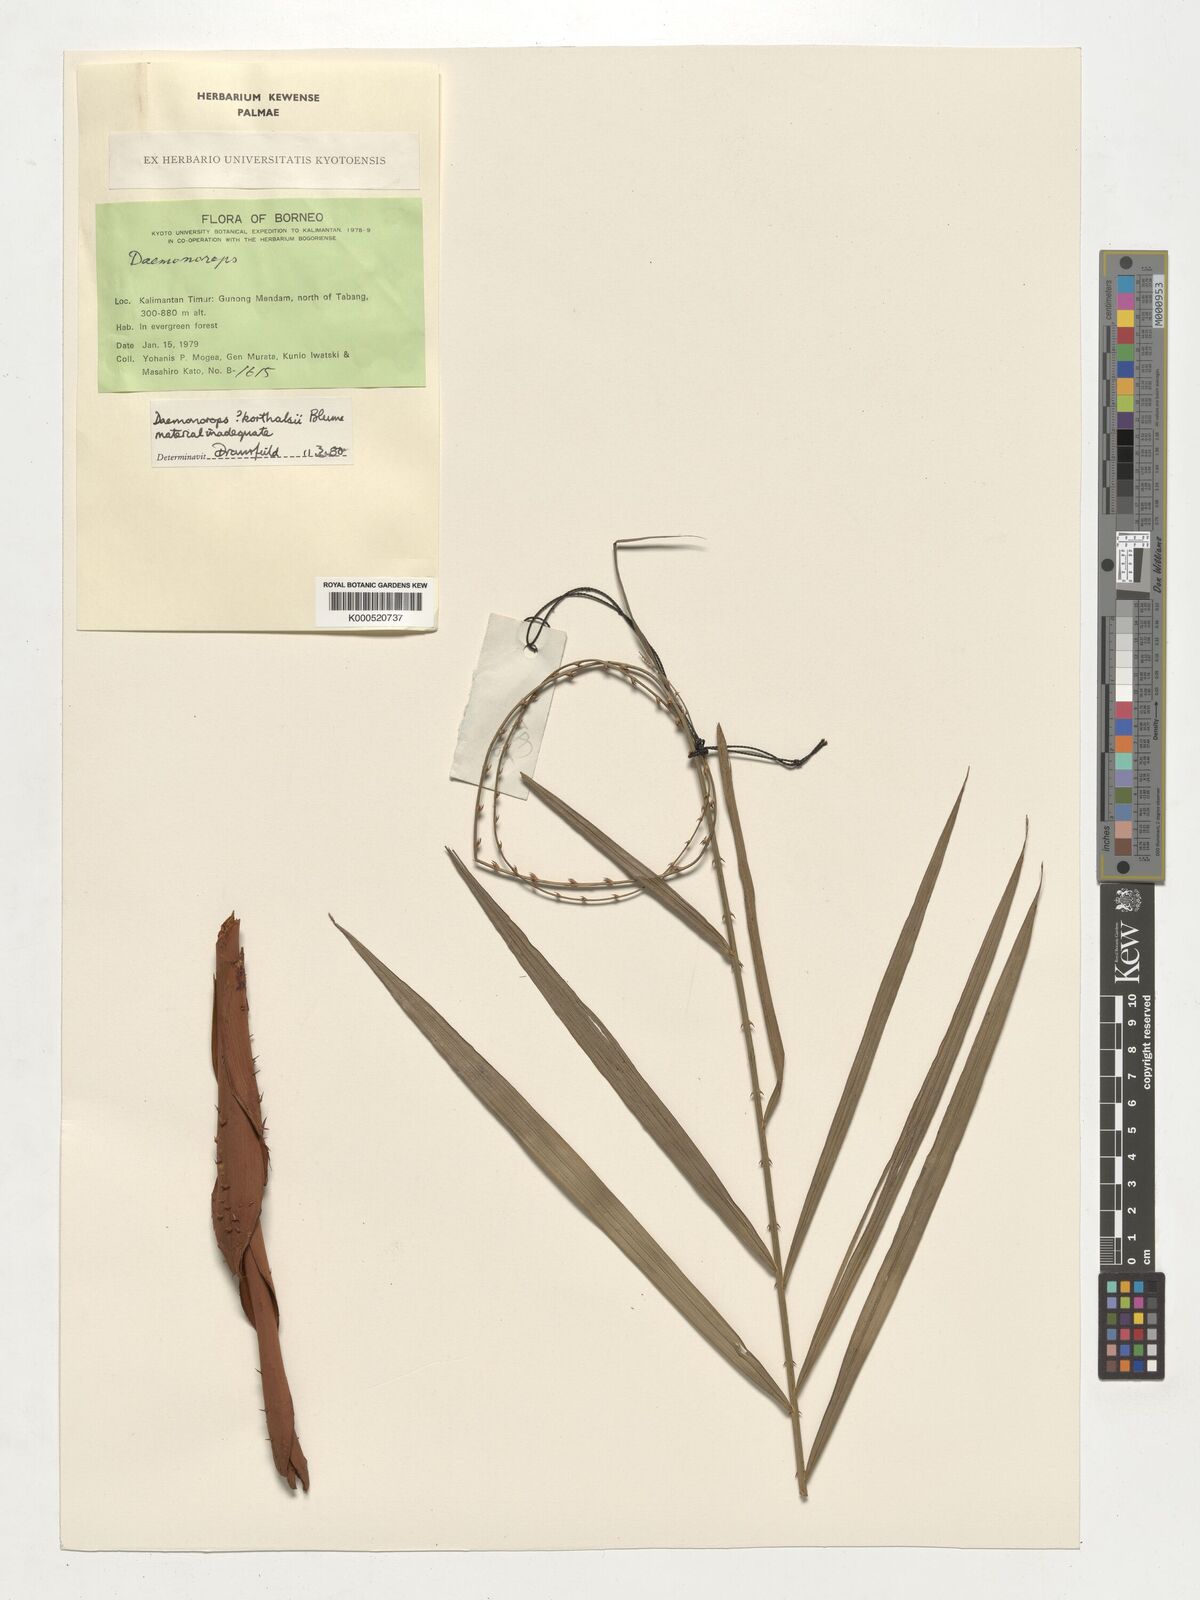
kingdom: Plantae
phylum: Tracheophyta
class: Liliopsida
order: Arecales
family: Arecaceae
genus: Calamus
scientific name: Calamus hirsutus
